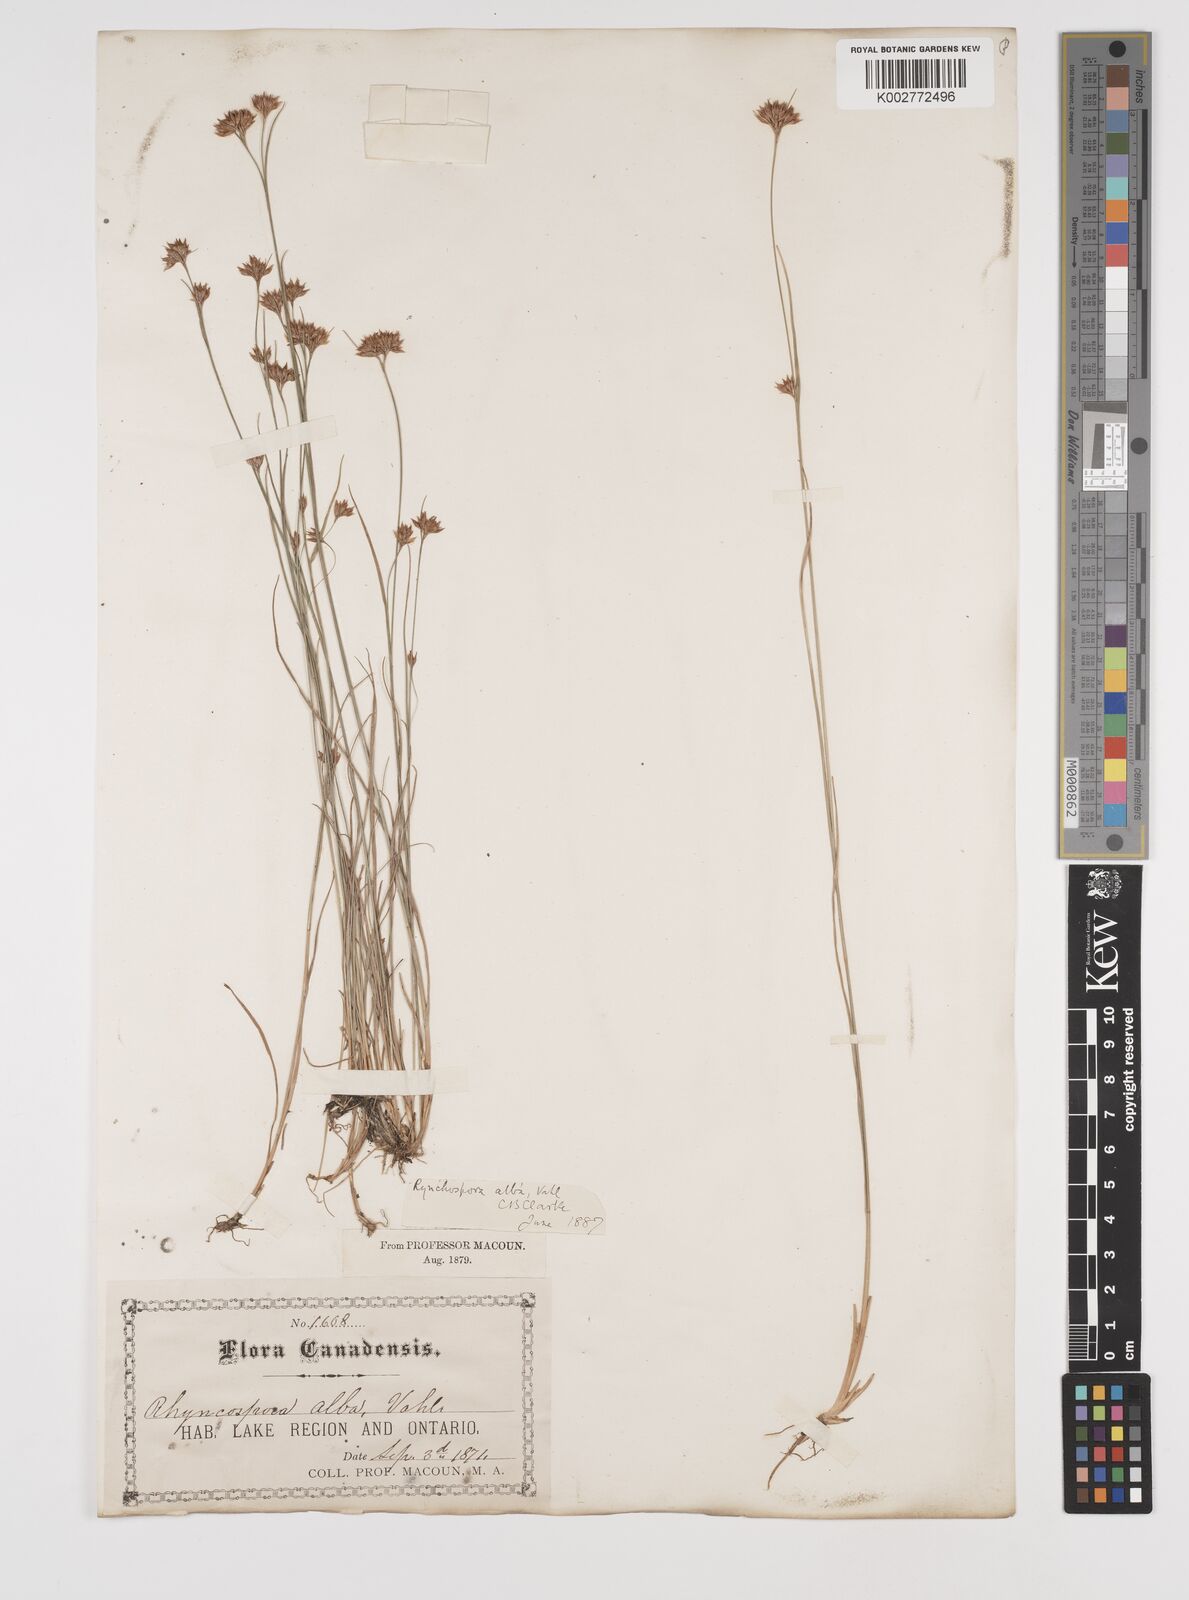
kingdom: Plantae
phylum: Tracheophyta
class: Liliopsida
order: Poales
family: Cyperaceae
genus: Rhynchospora
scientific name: Rhynchospora alba
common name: White beak-sedge
